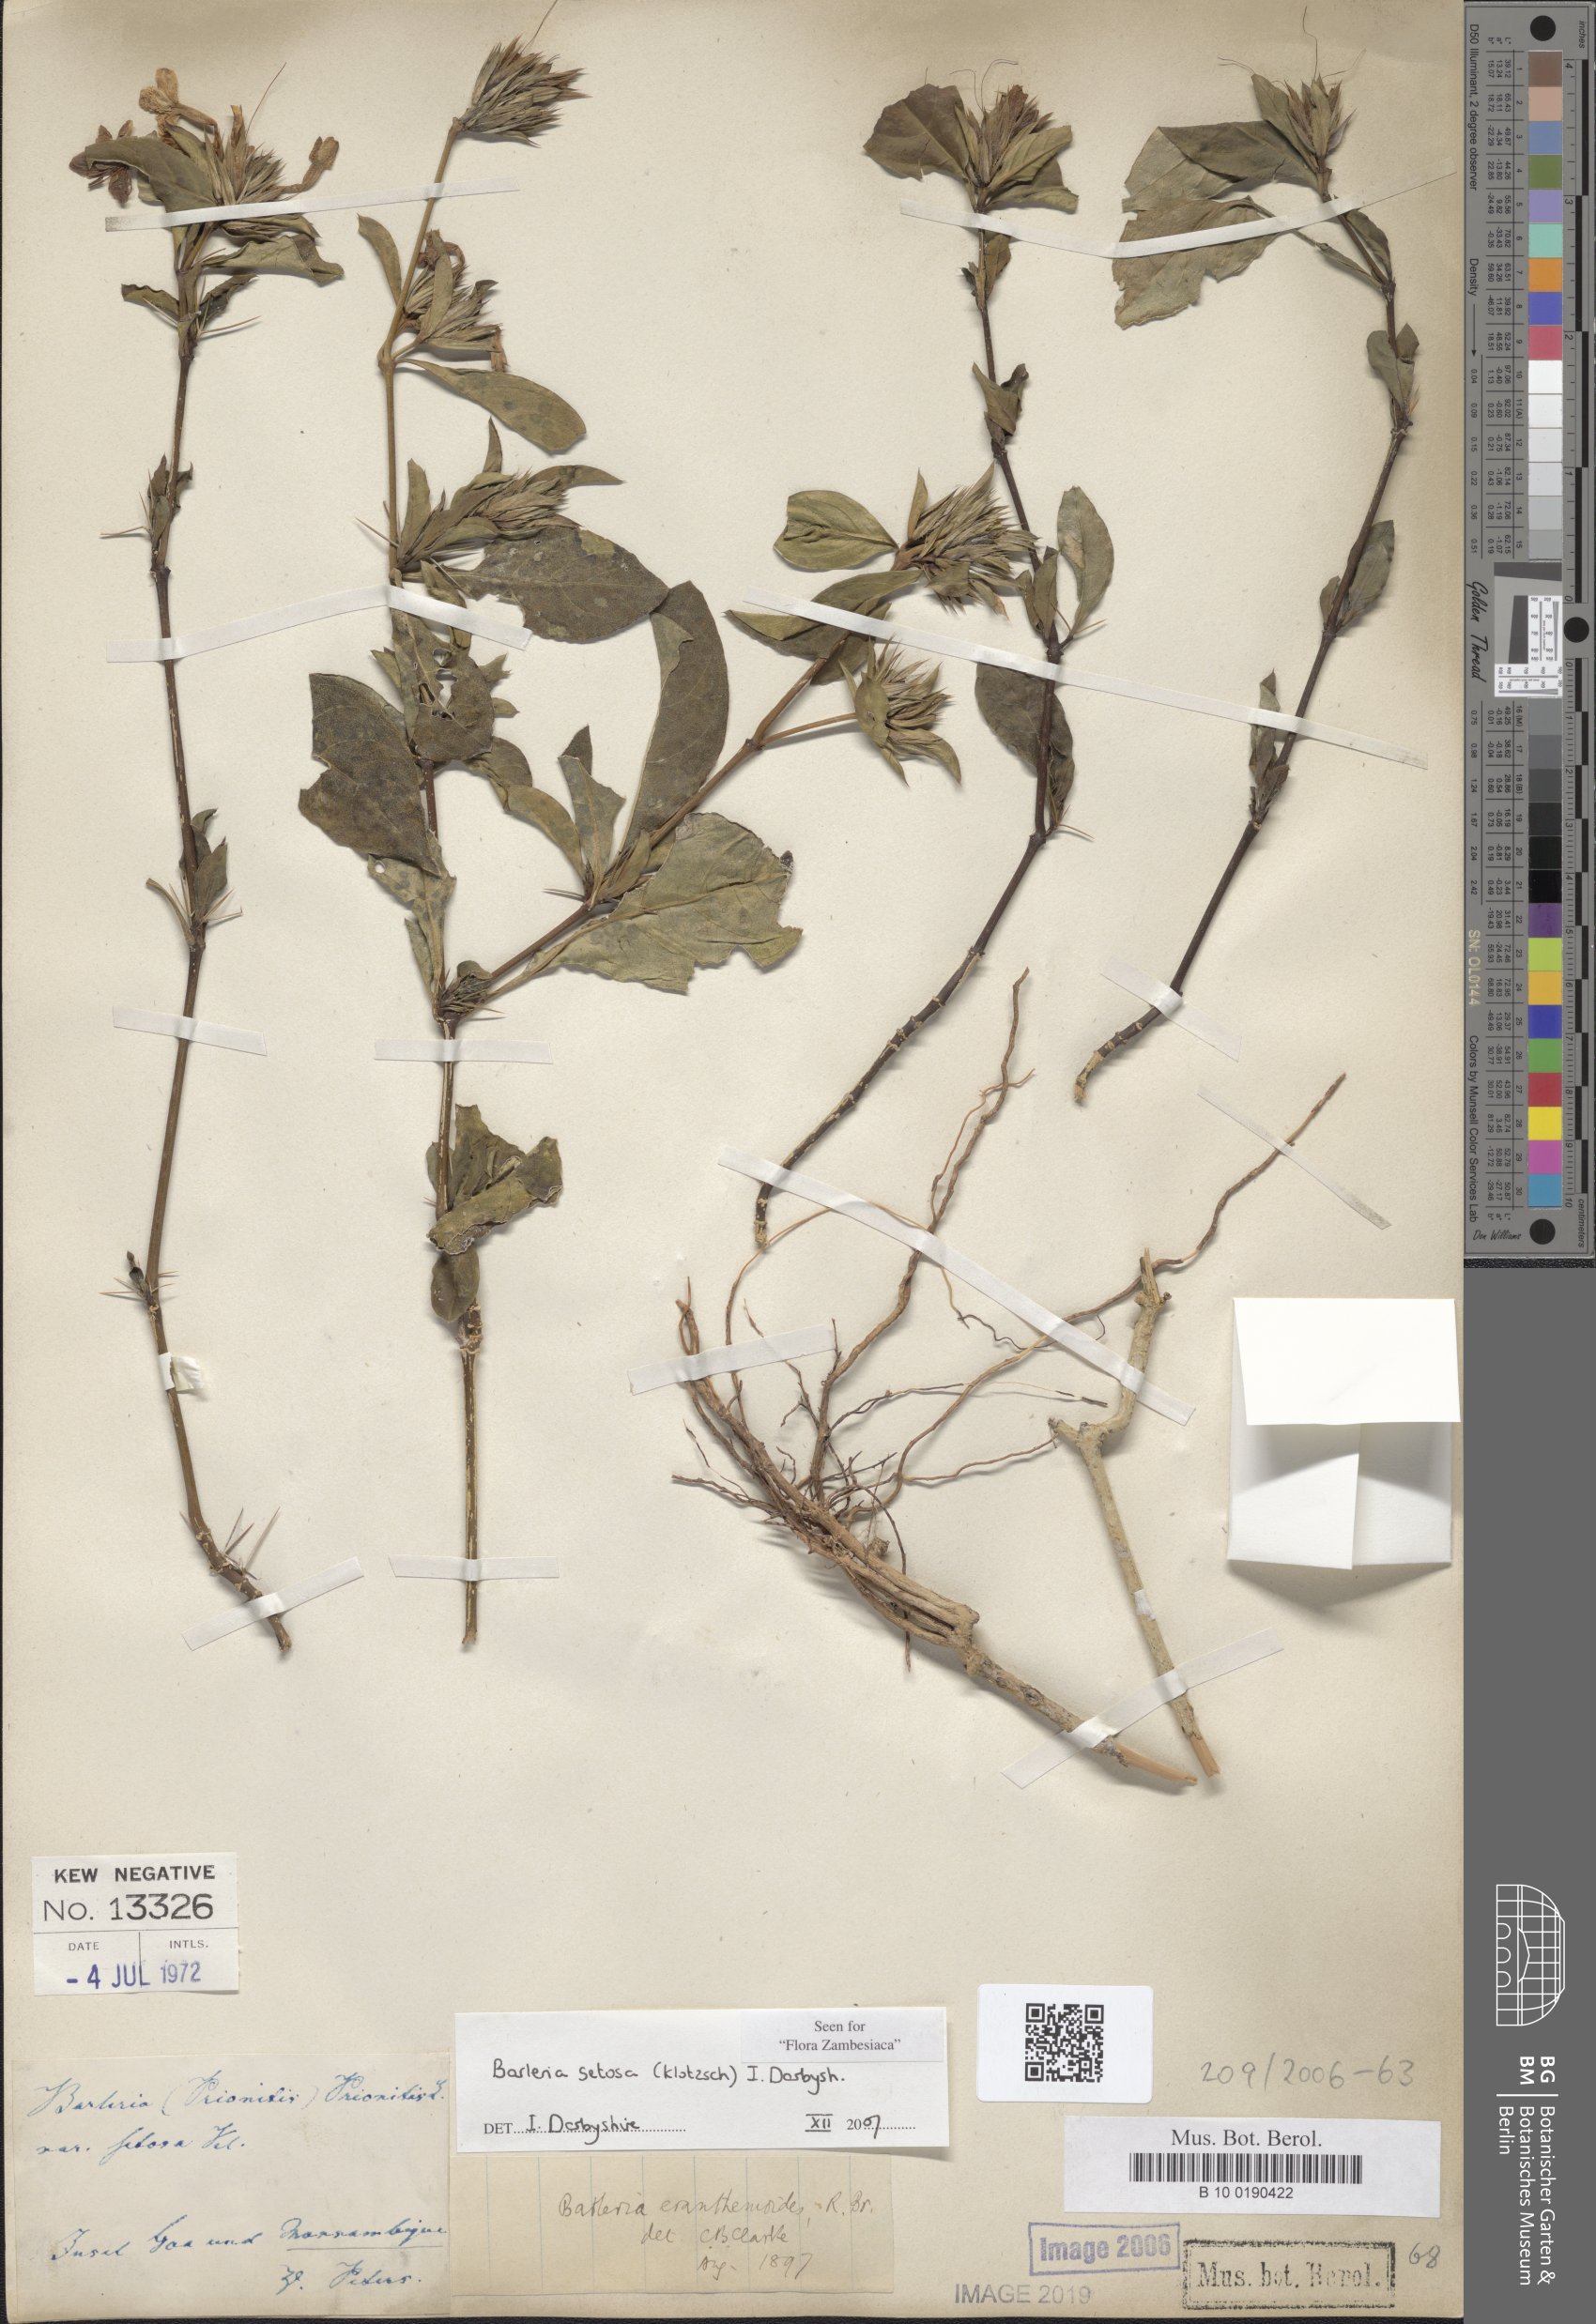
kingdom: Plantae
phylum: Tracheophyta
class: Magnoliopsida
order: Lamiales
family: Acanthaceae
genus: Barleria
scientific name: Barleria setosa
